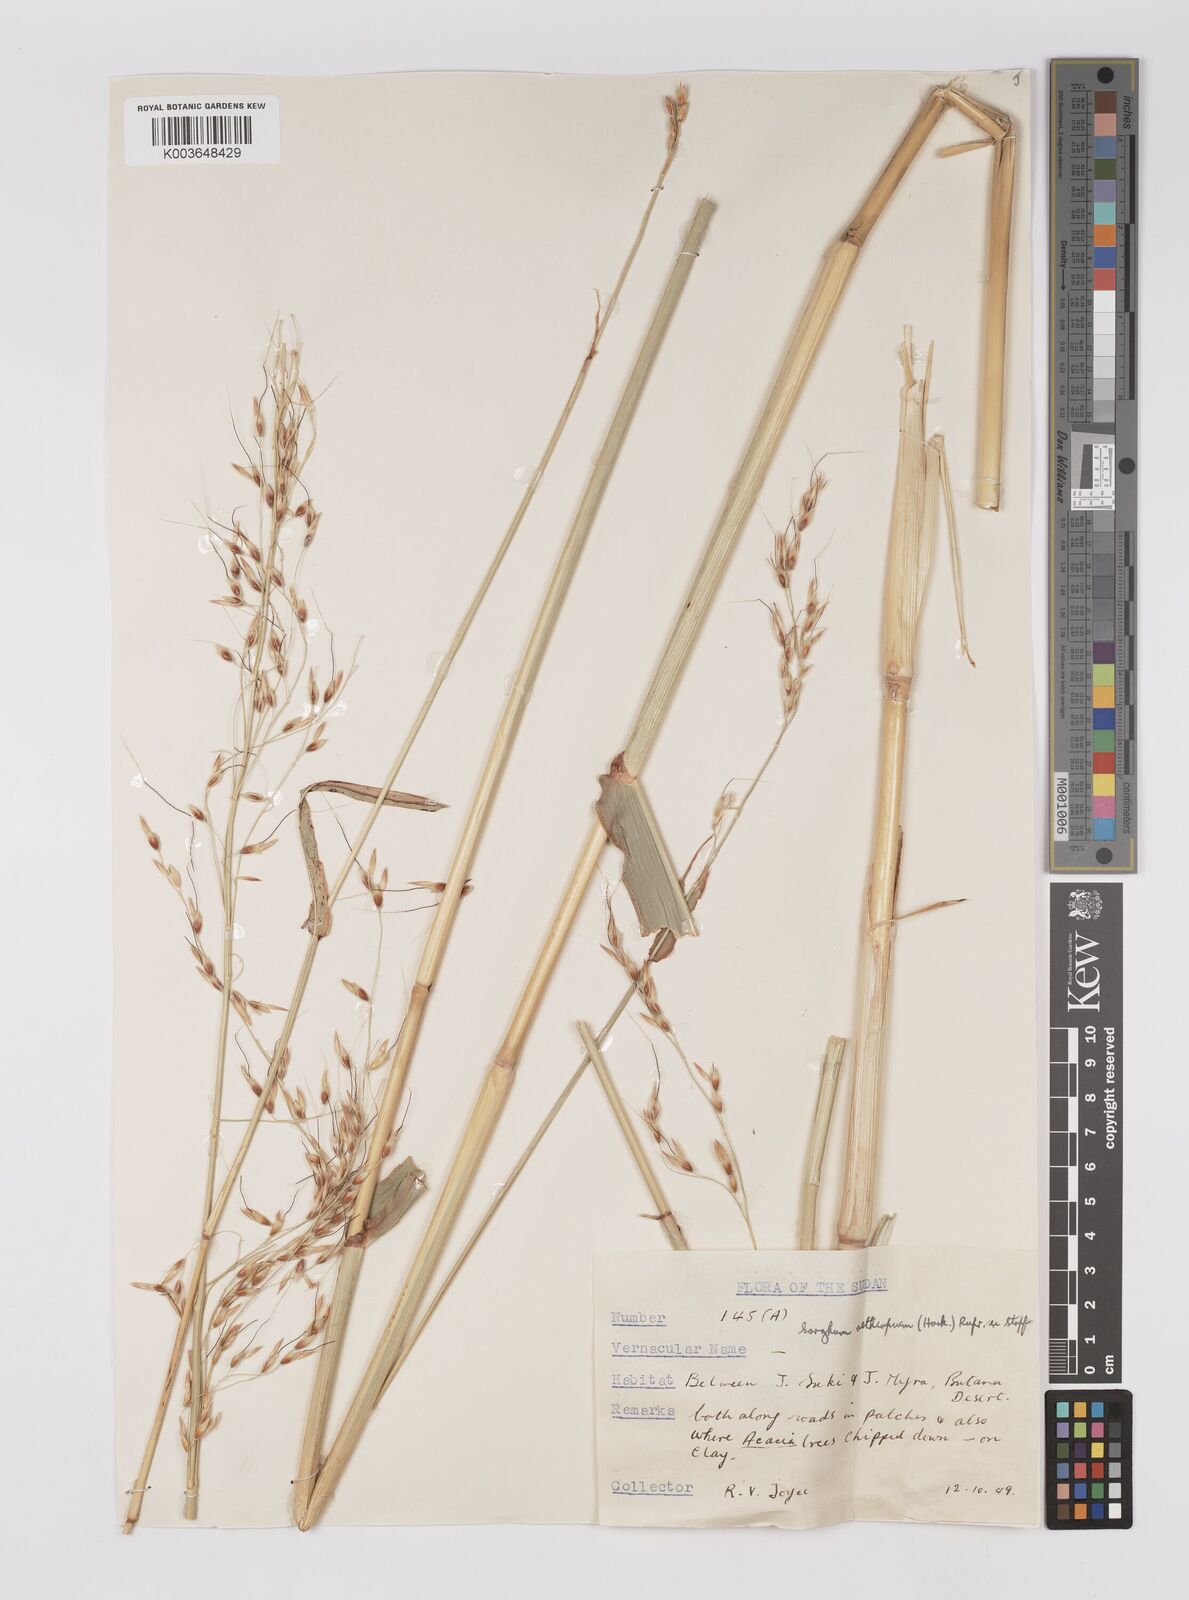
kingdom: Plantae
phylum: Tracheophyta
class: Liliopsida
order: Poales
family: Poaceae
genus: Sorghum
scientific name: Sorghum arundinaceum
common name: Sorghum
